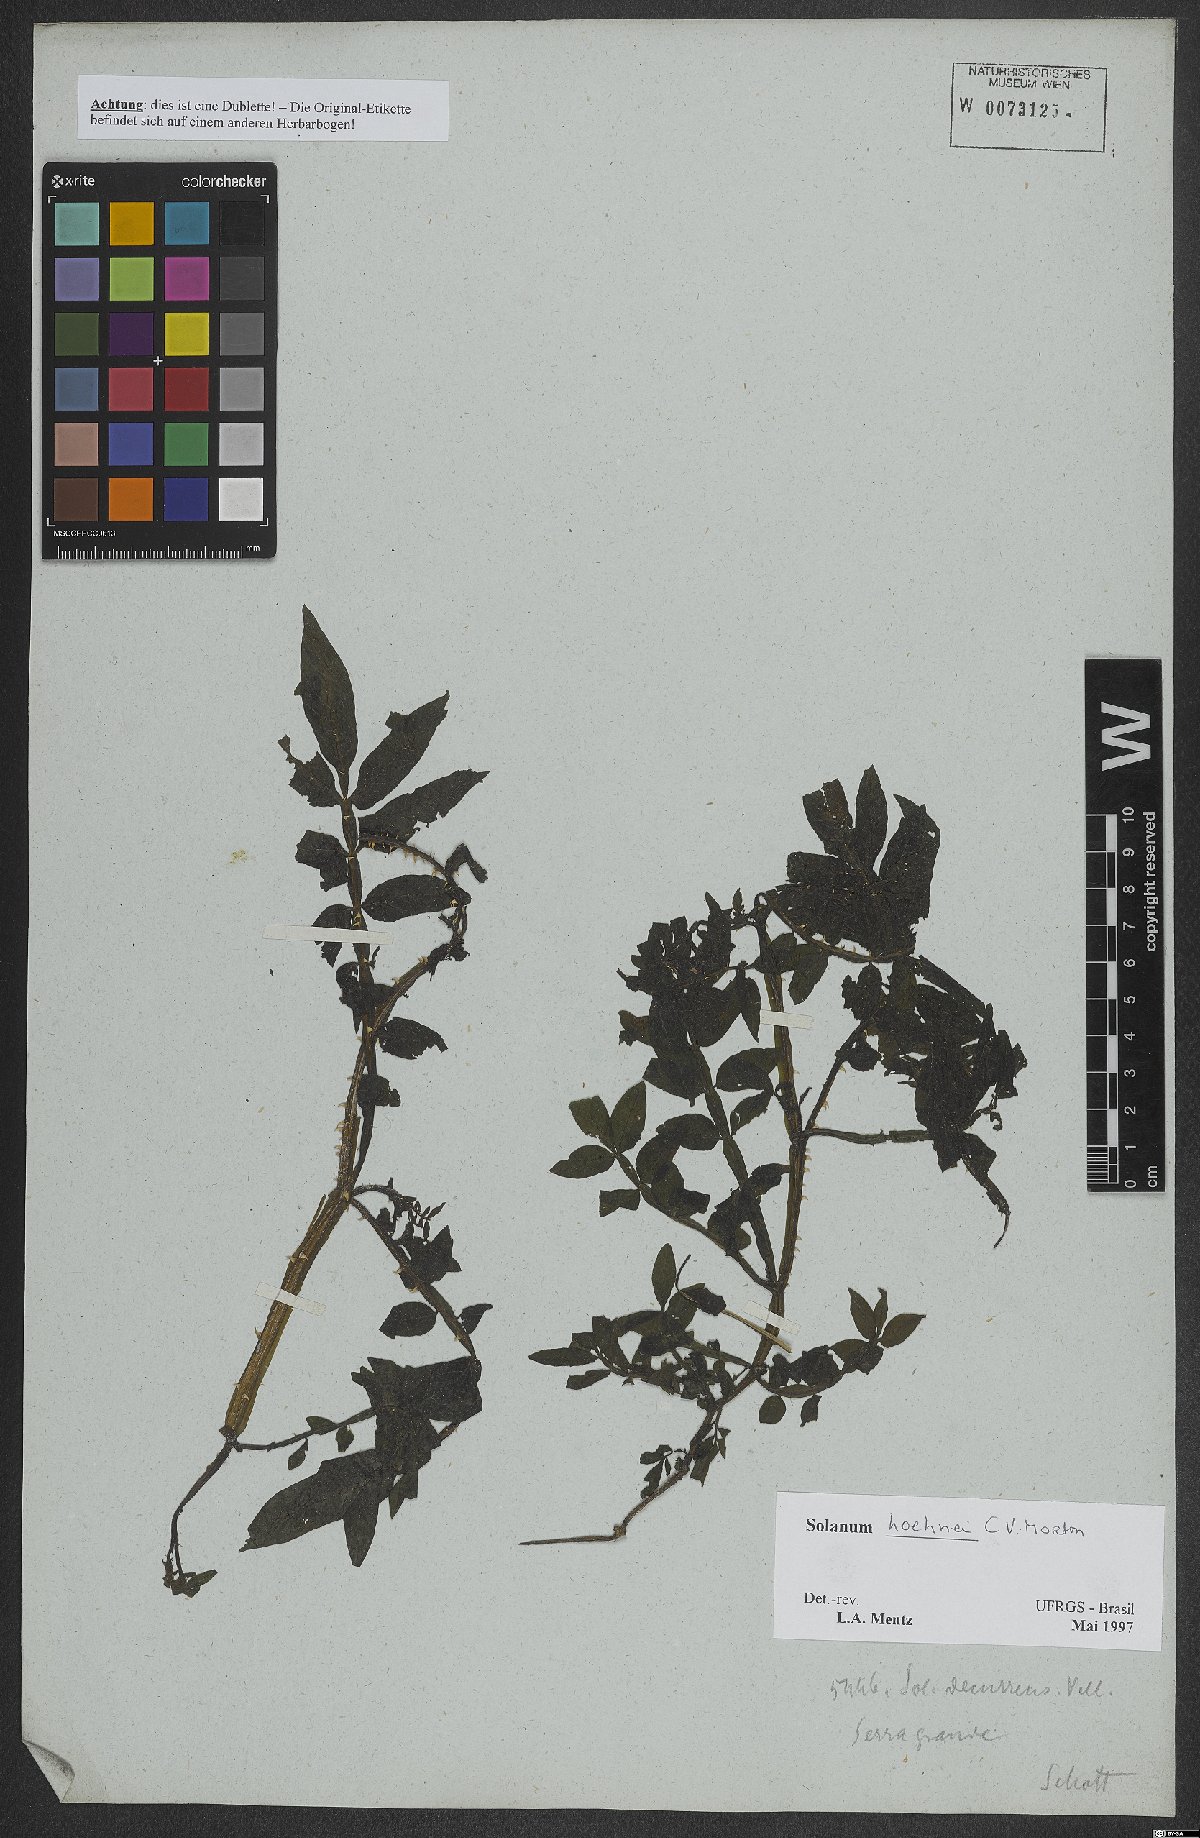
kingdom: Plantae
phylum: Tracheophyta
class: Magnoliopsida
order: Solanales
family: Solanaceae
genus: Solanum
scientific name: Solanum hoehnei
